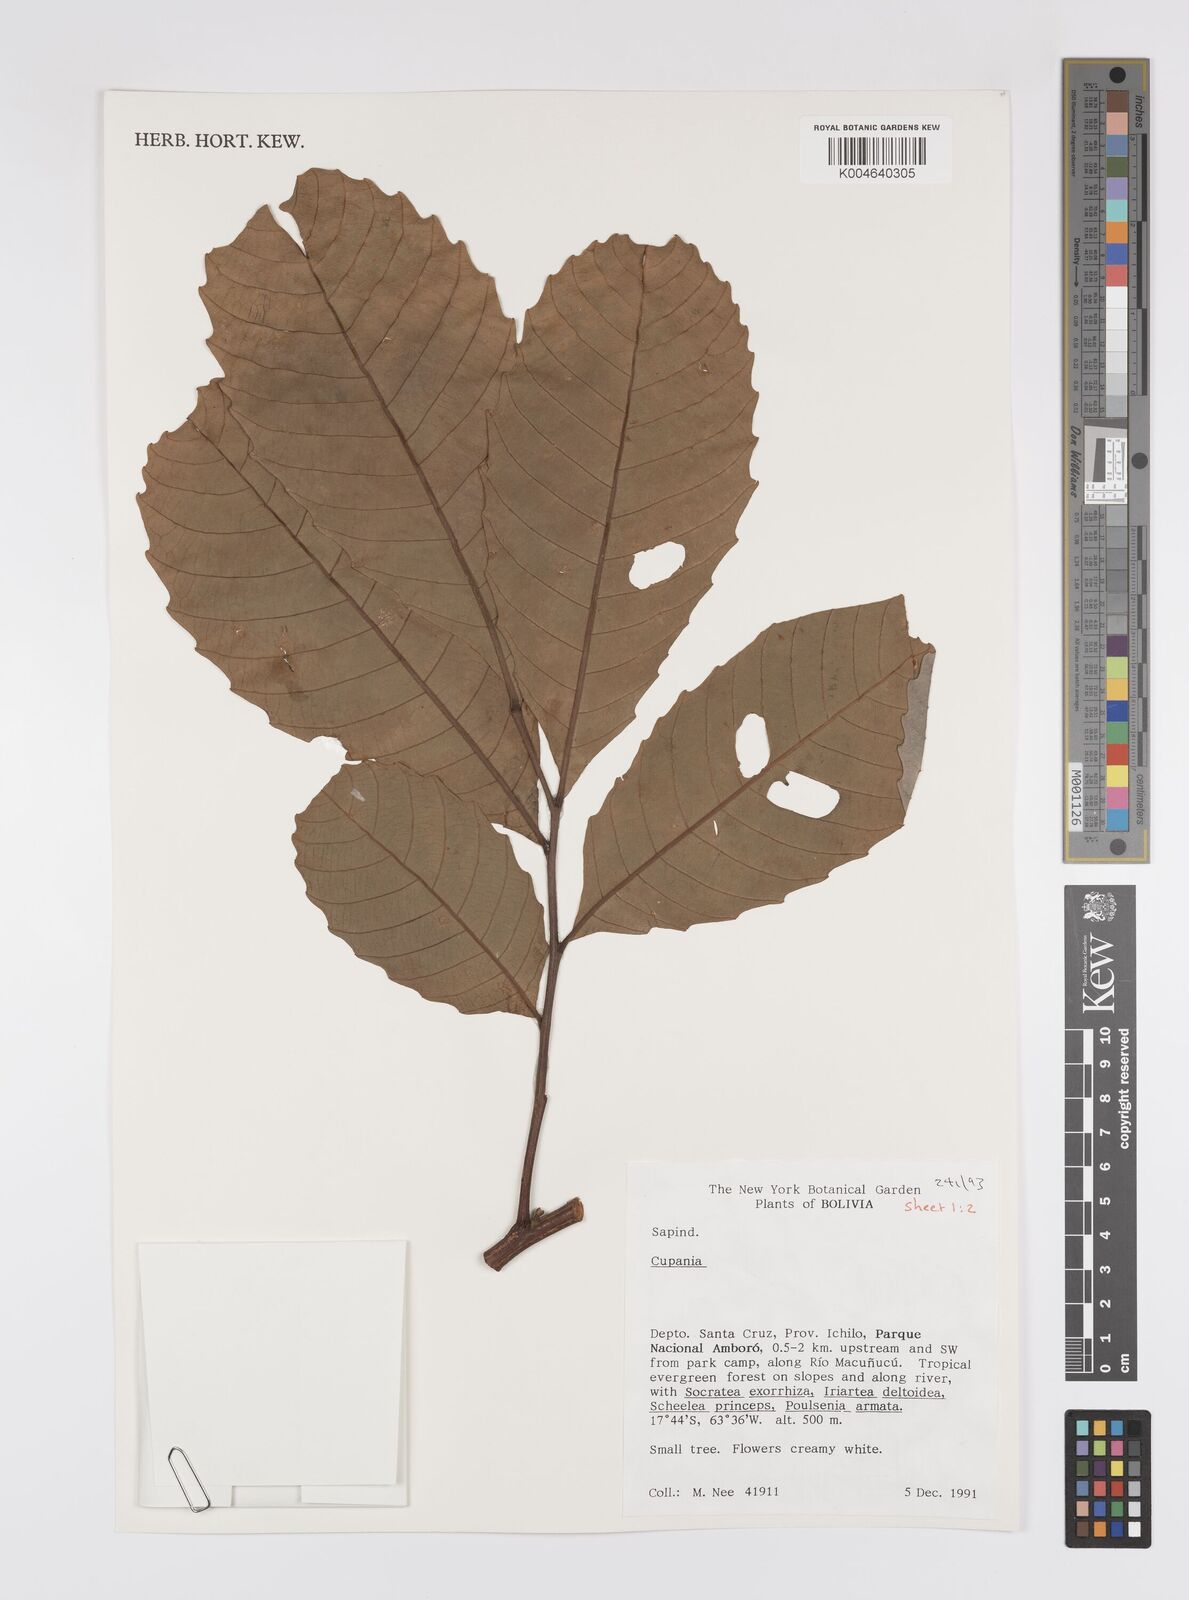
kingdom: Plantae
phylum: Tracheophyta
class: Magnoliopsida
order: Sapindales
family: Sapindaceae
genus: Cupania
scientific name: Cupania
